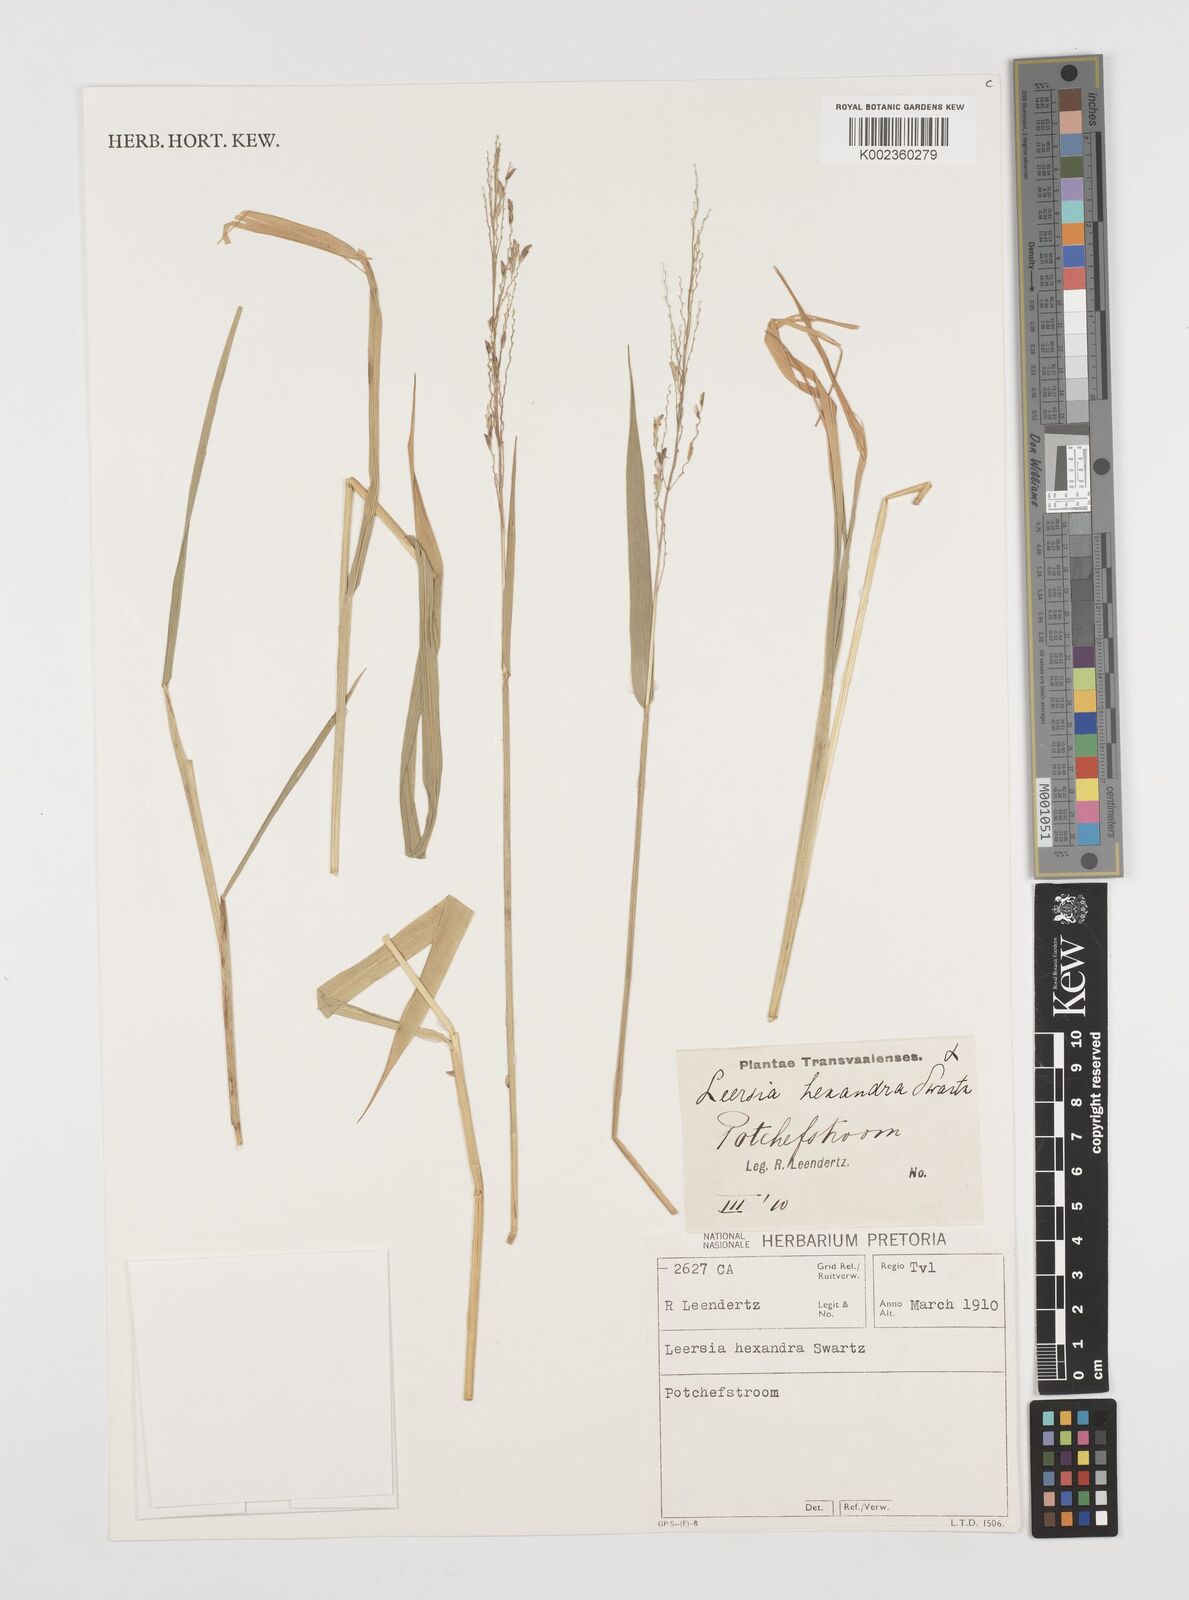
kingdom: Plantae
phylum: Tracheophyta
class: Liliopsida
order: Poales
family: Poaceae
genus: Leersia
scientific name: Leersia hexandra
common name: Southern cut grass
